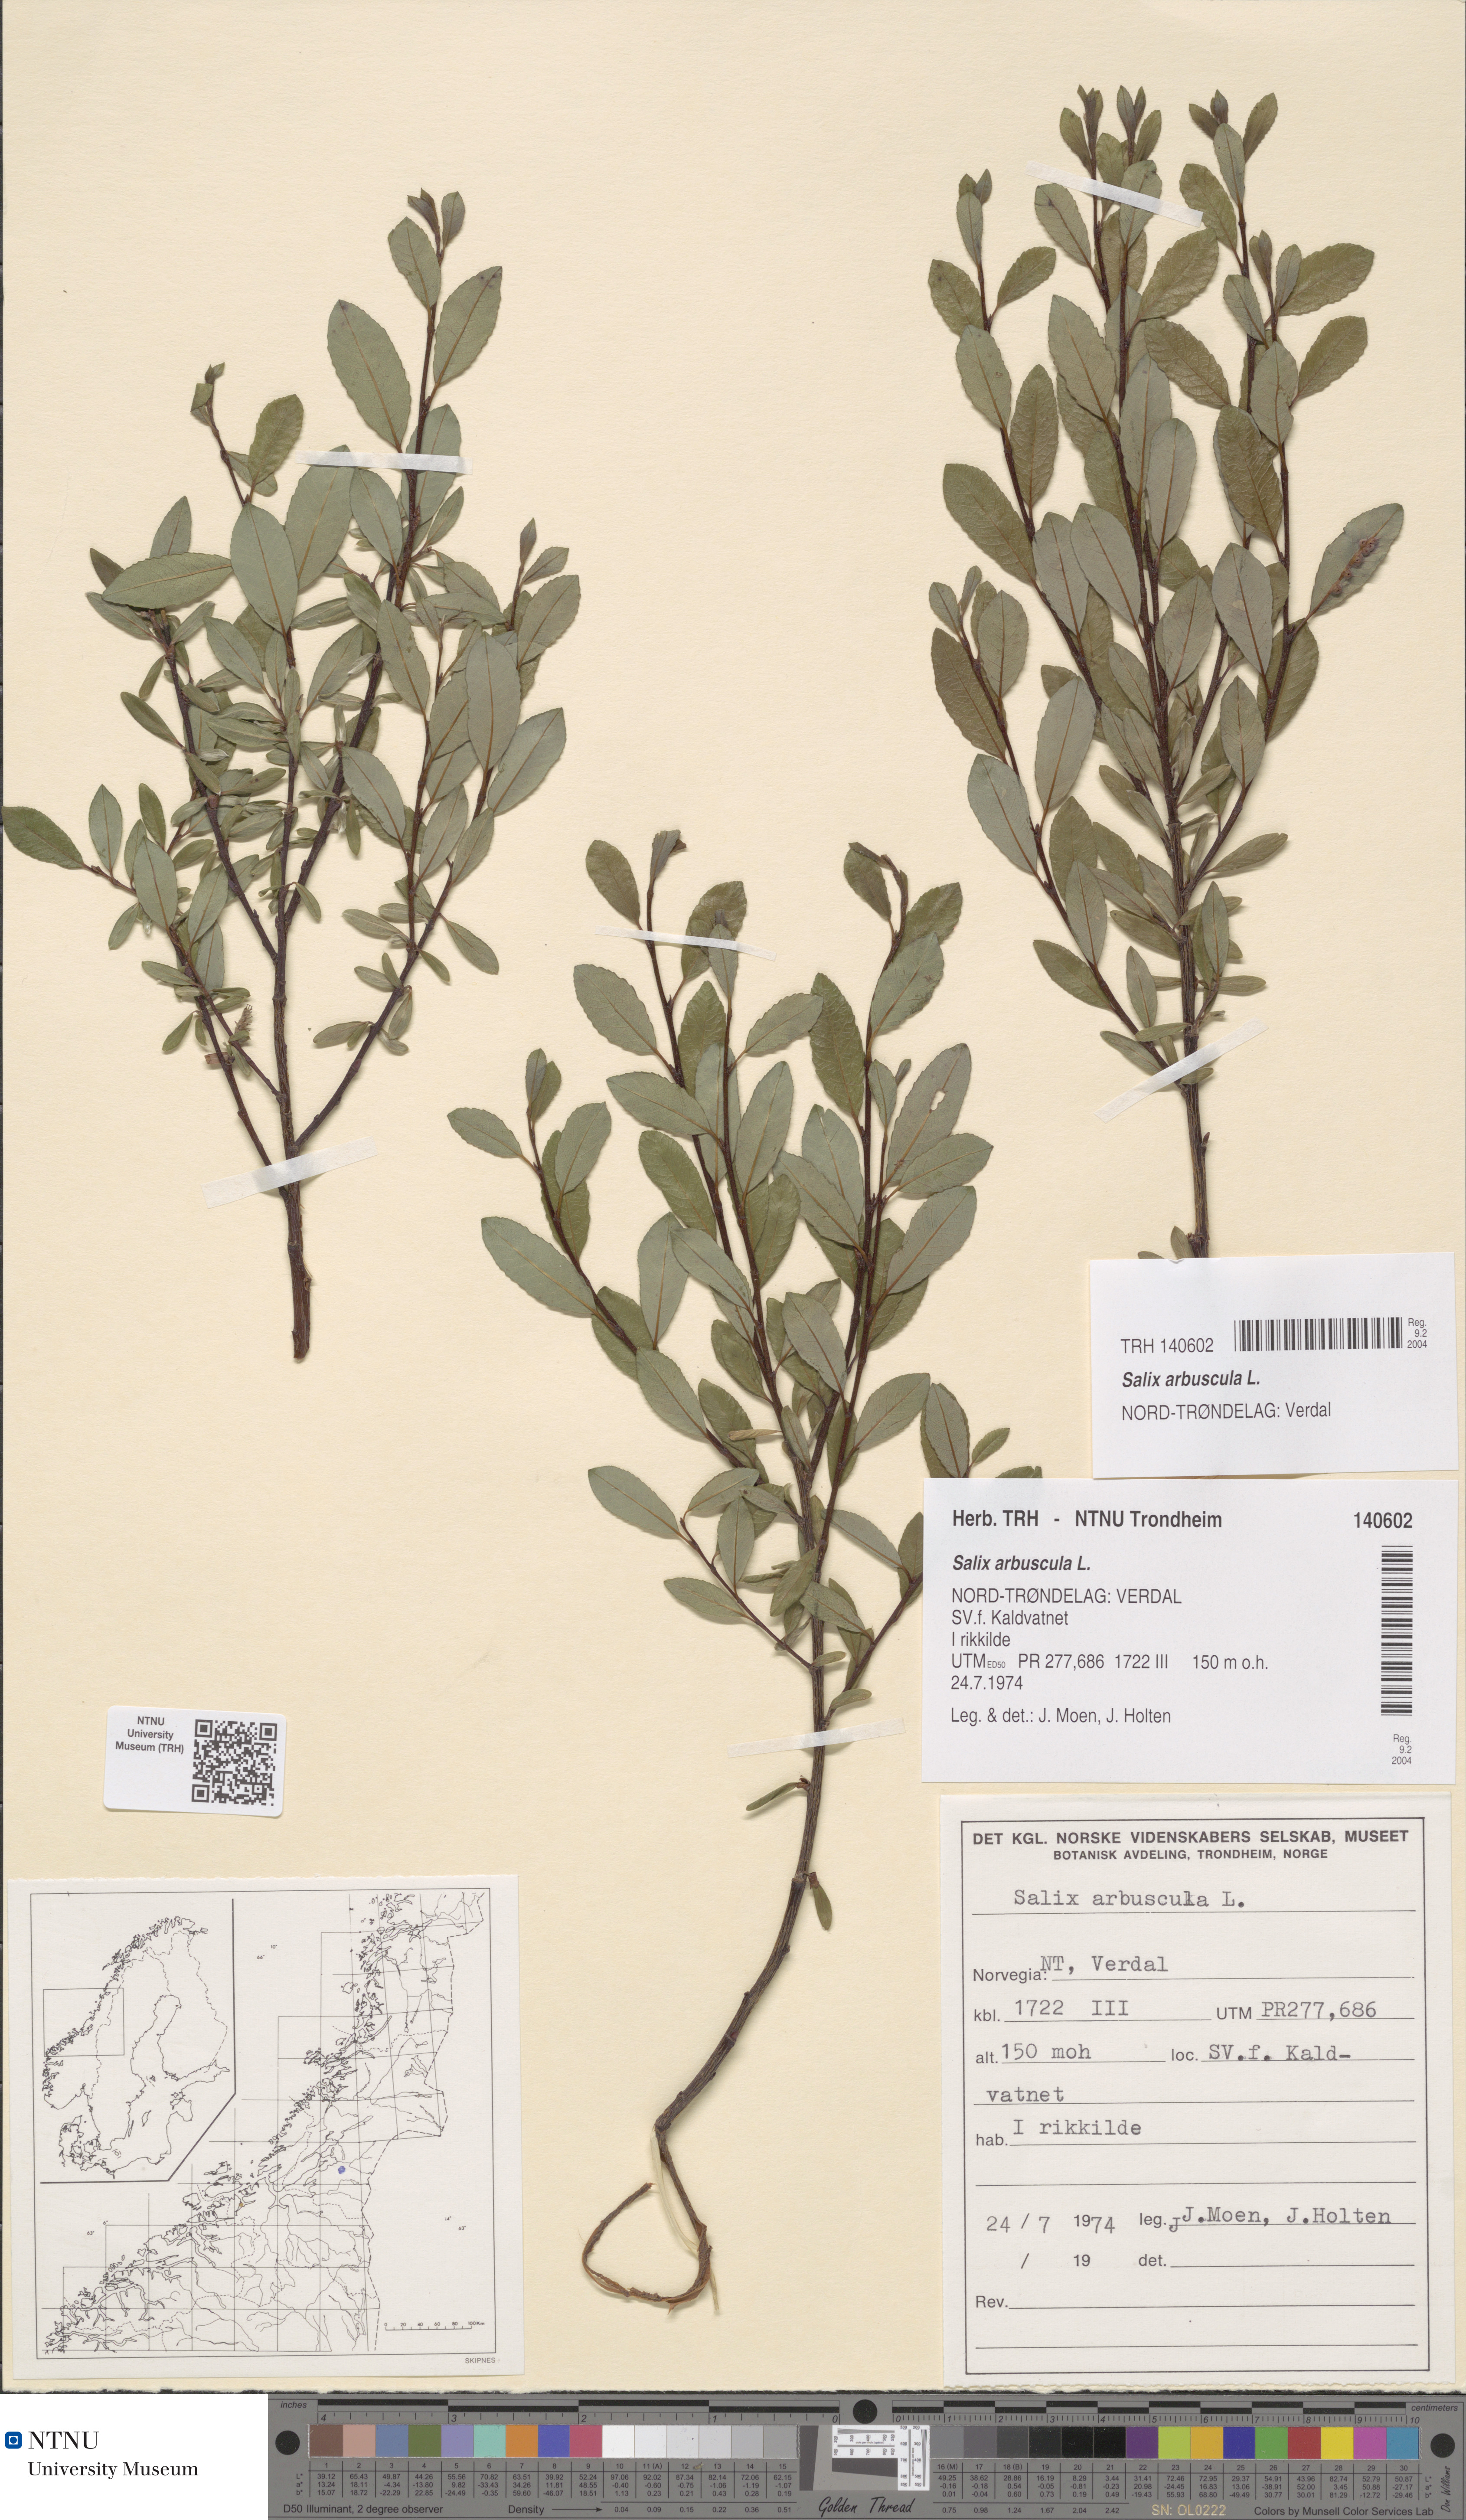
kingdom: Plantae
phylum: Tracheophyta
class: Magnoliopsida
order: Malpighiales
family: Salicaceae
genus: Salix
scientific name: Salix arbuscula
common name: Mountain willow
